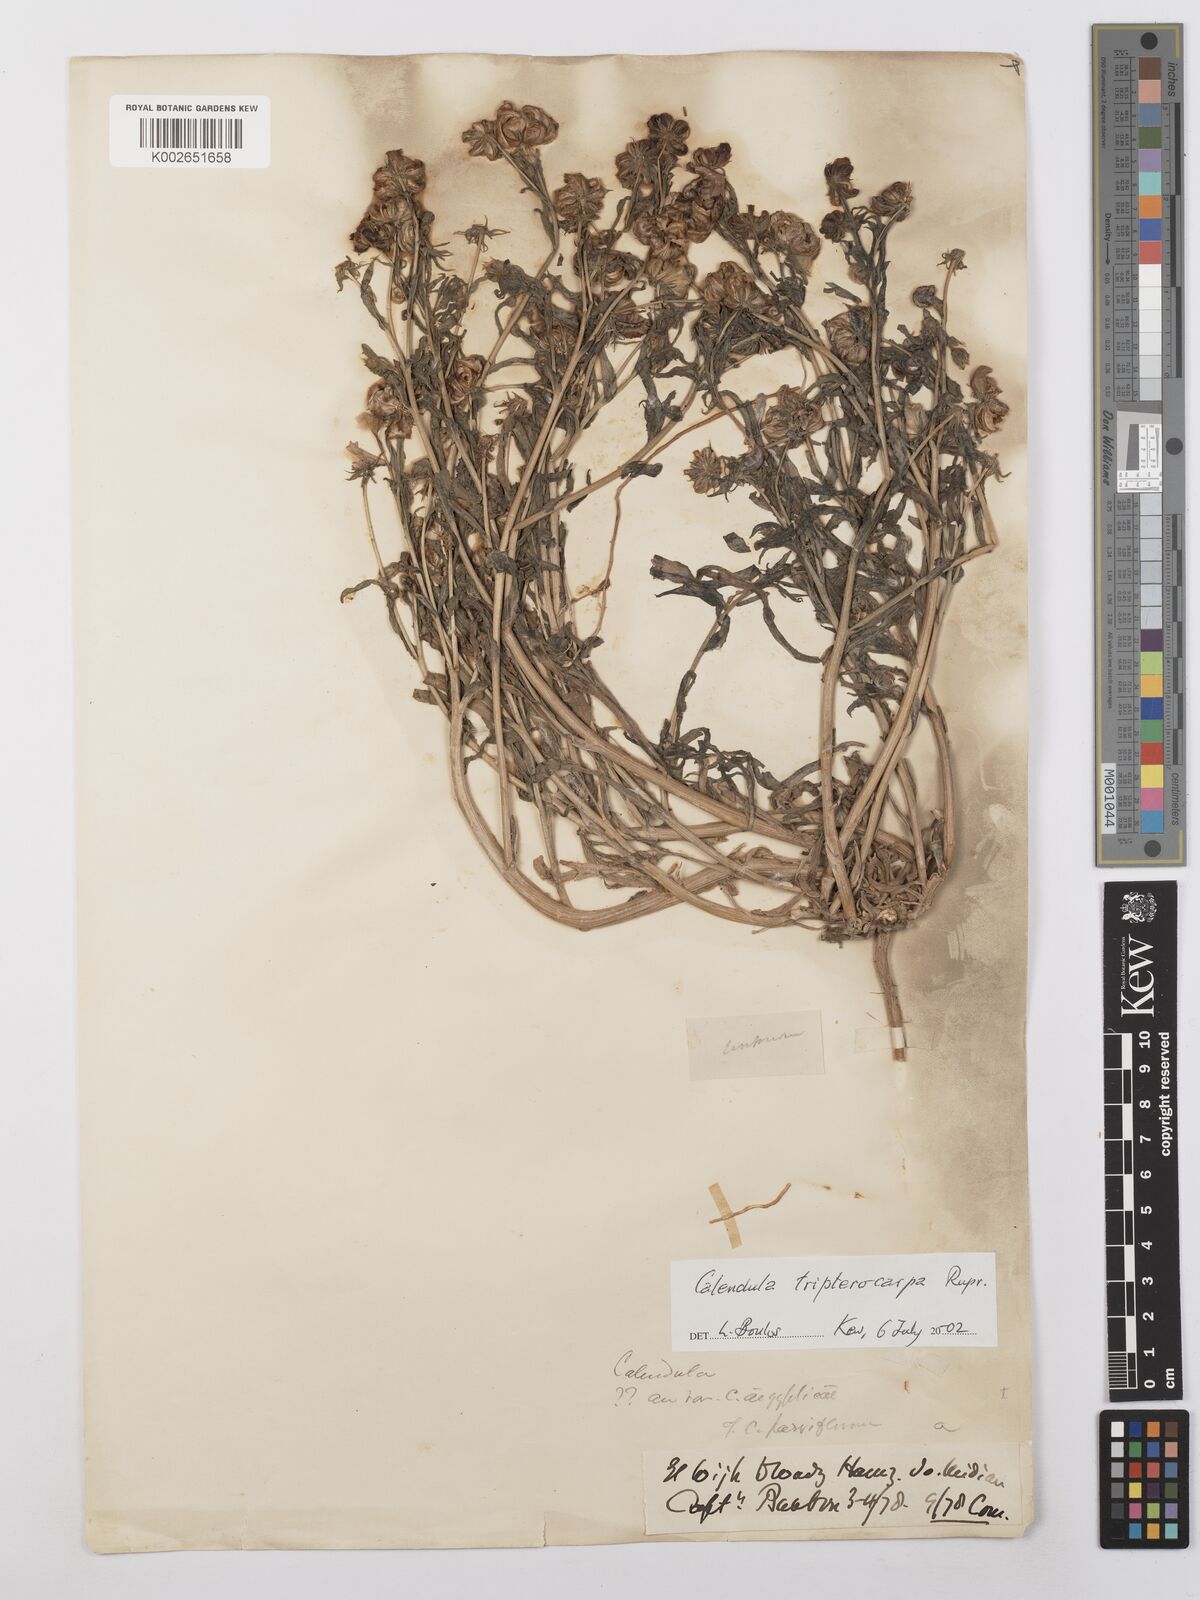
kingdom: Plantae
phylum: Tracheophyta
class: Magnoliopsida
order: Asterales
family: Asteraceae
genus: Calendula
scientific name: Calendula tripterocarpa
